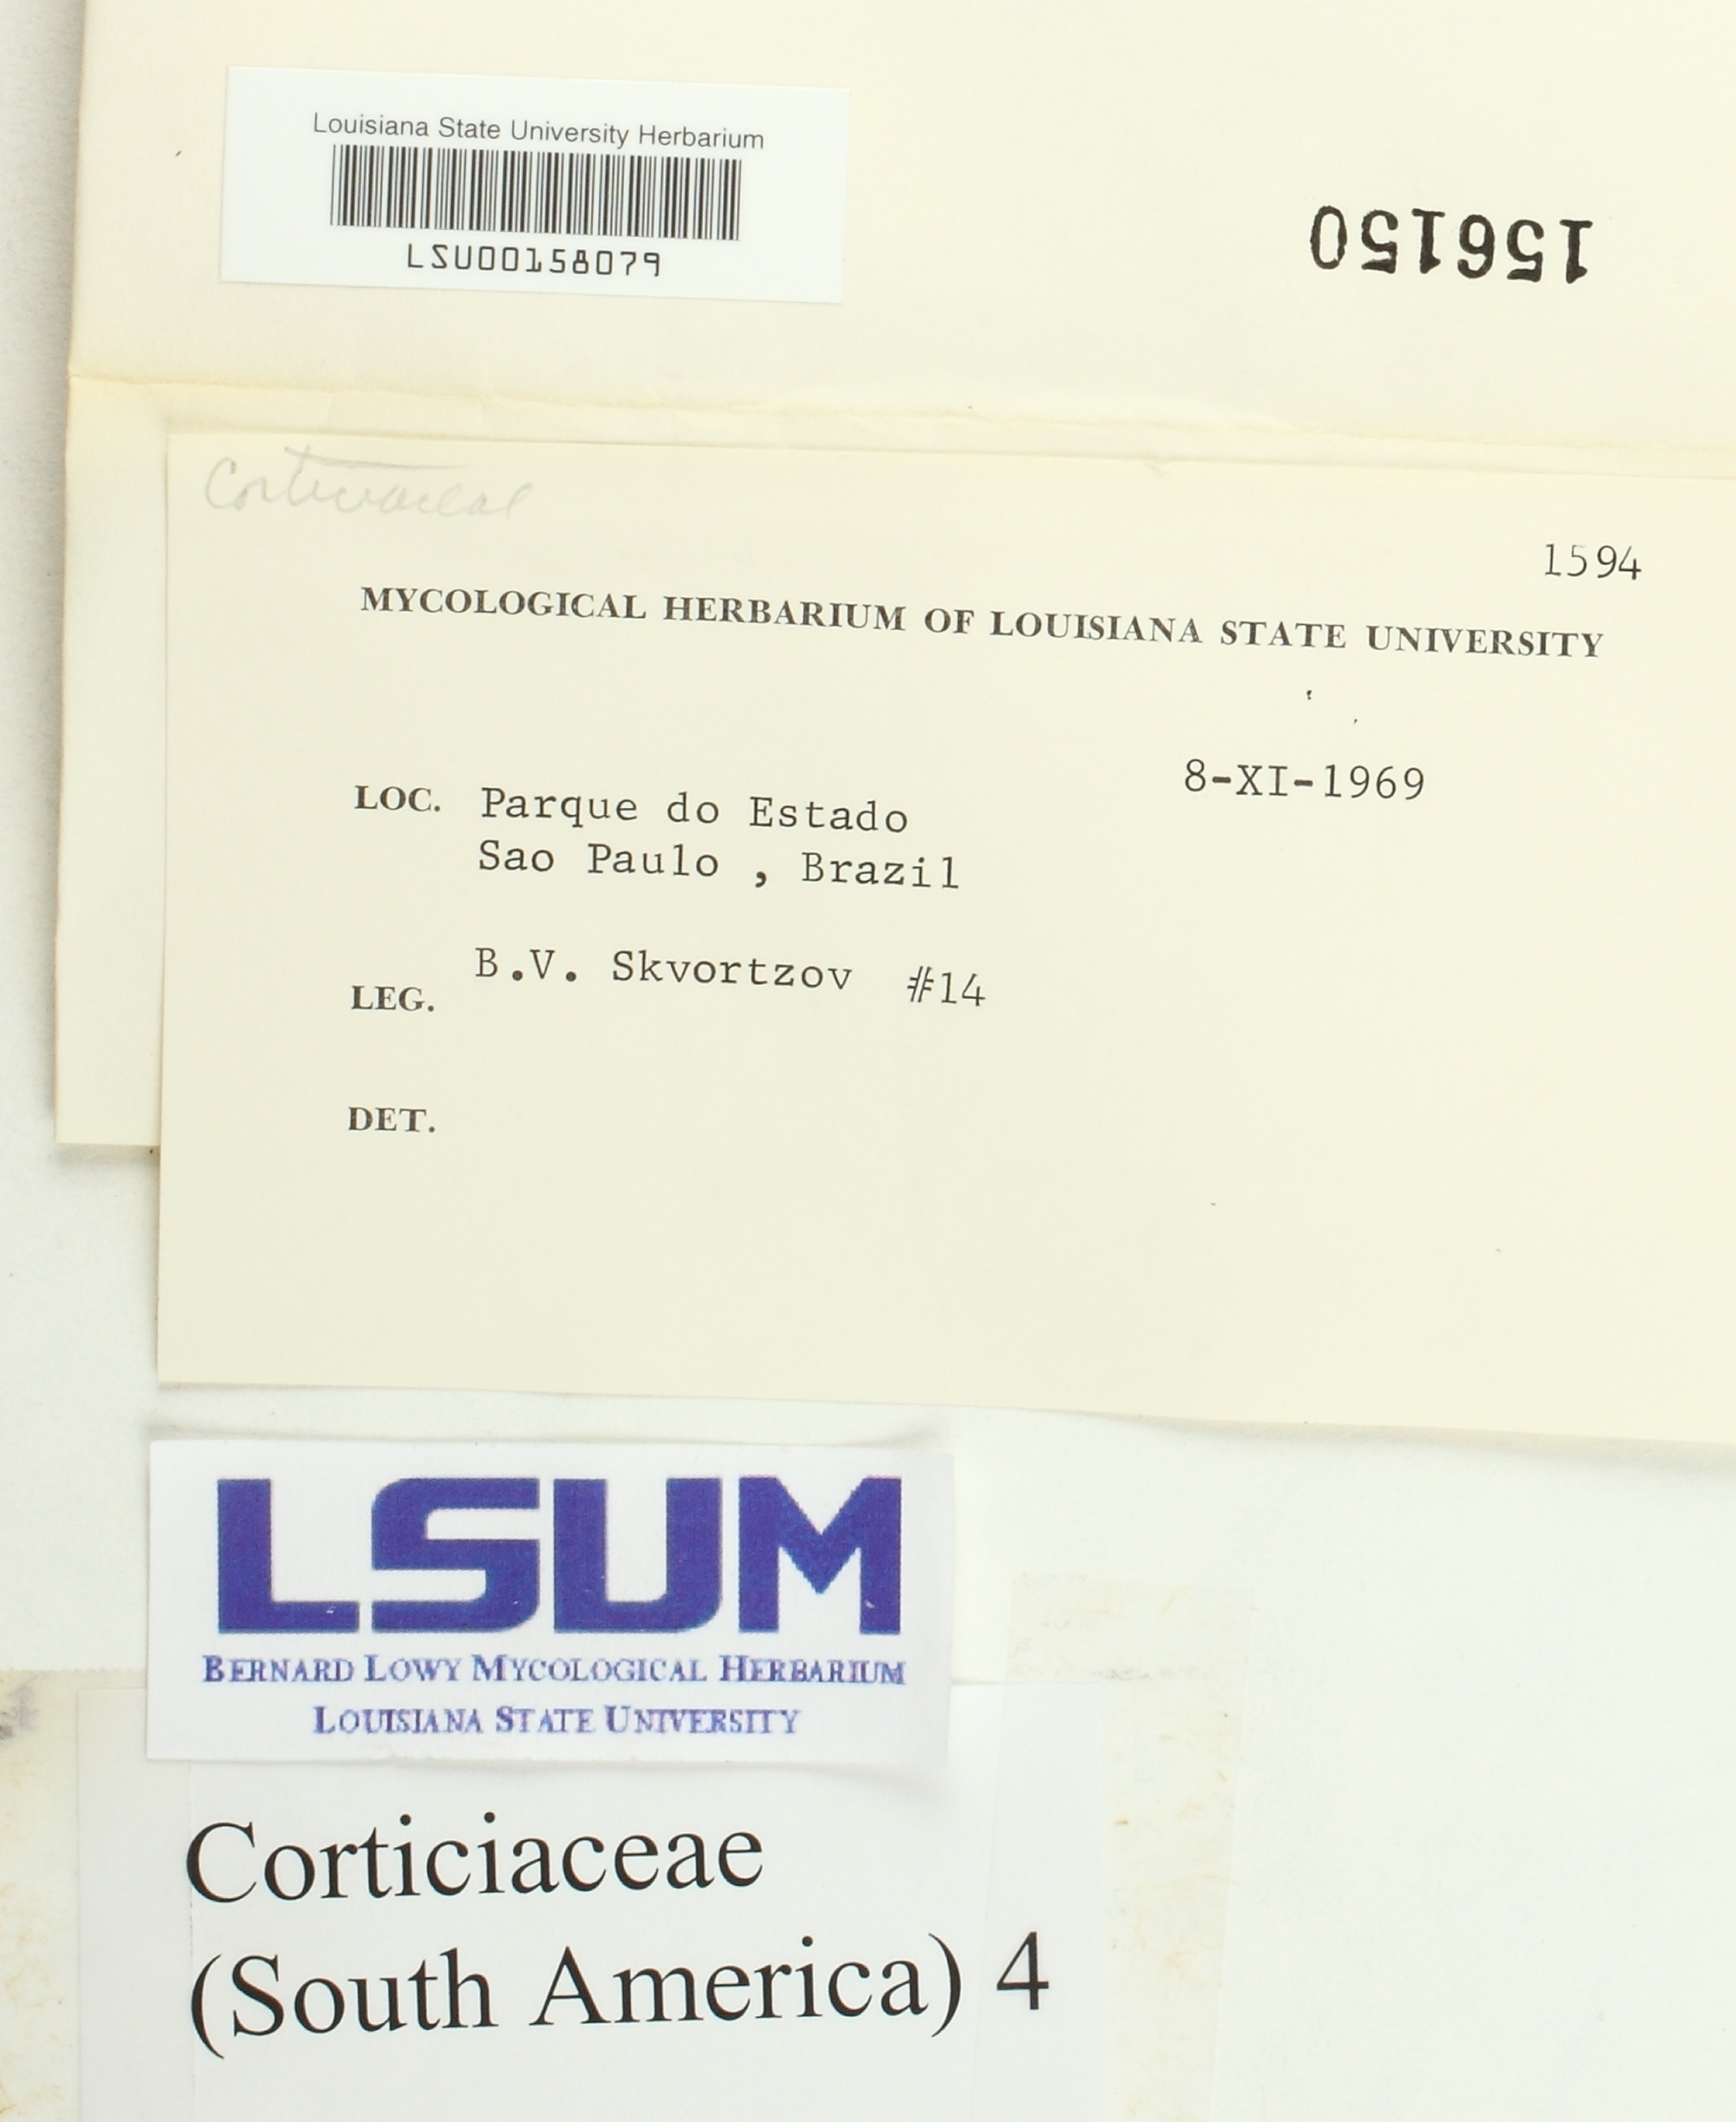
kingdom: Fungi
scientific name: Fungi
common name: Fungi
